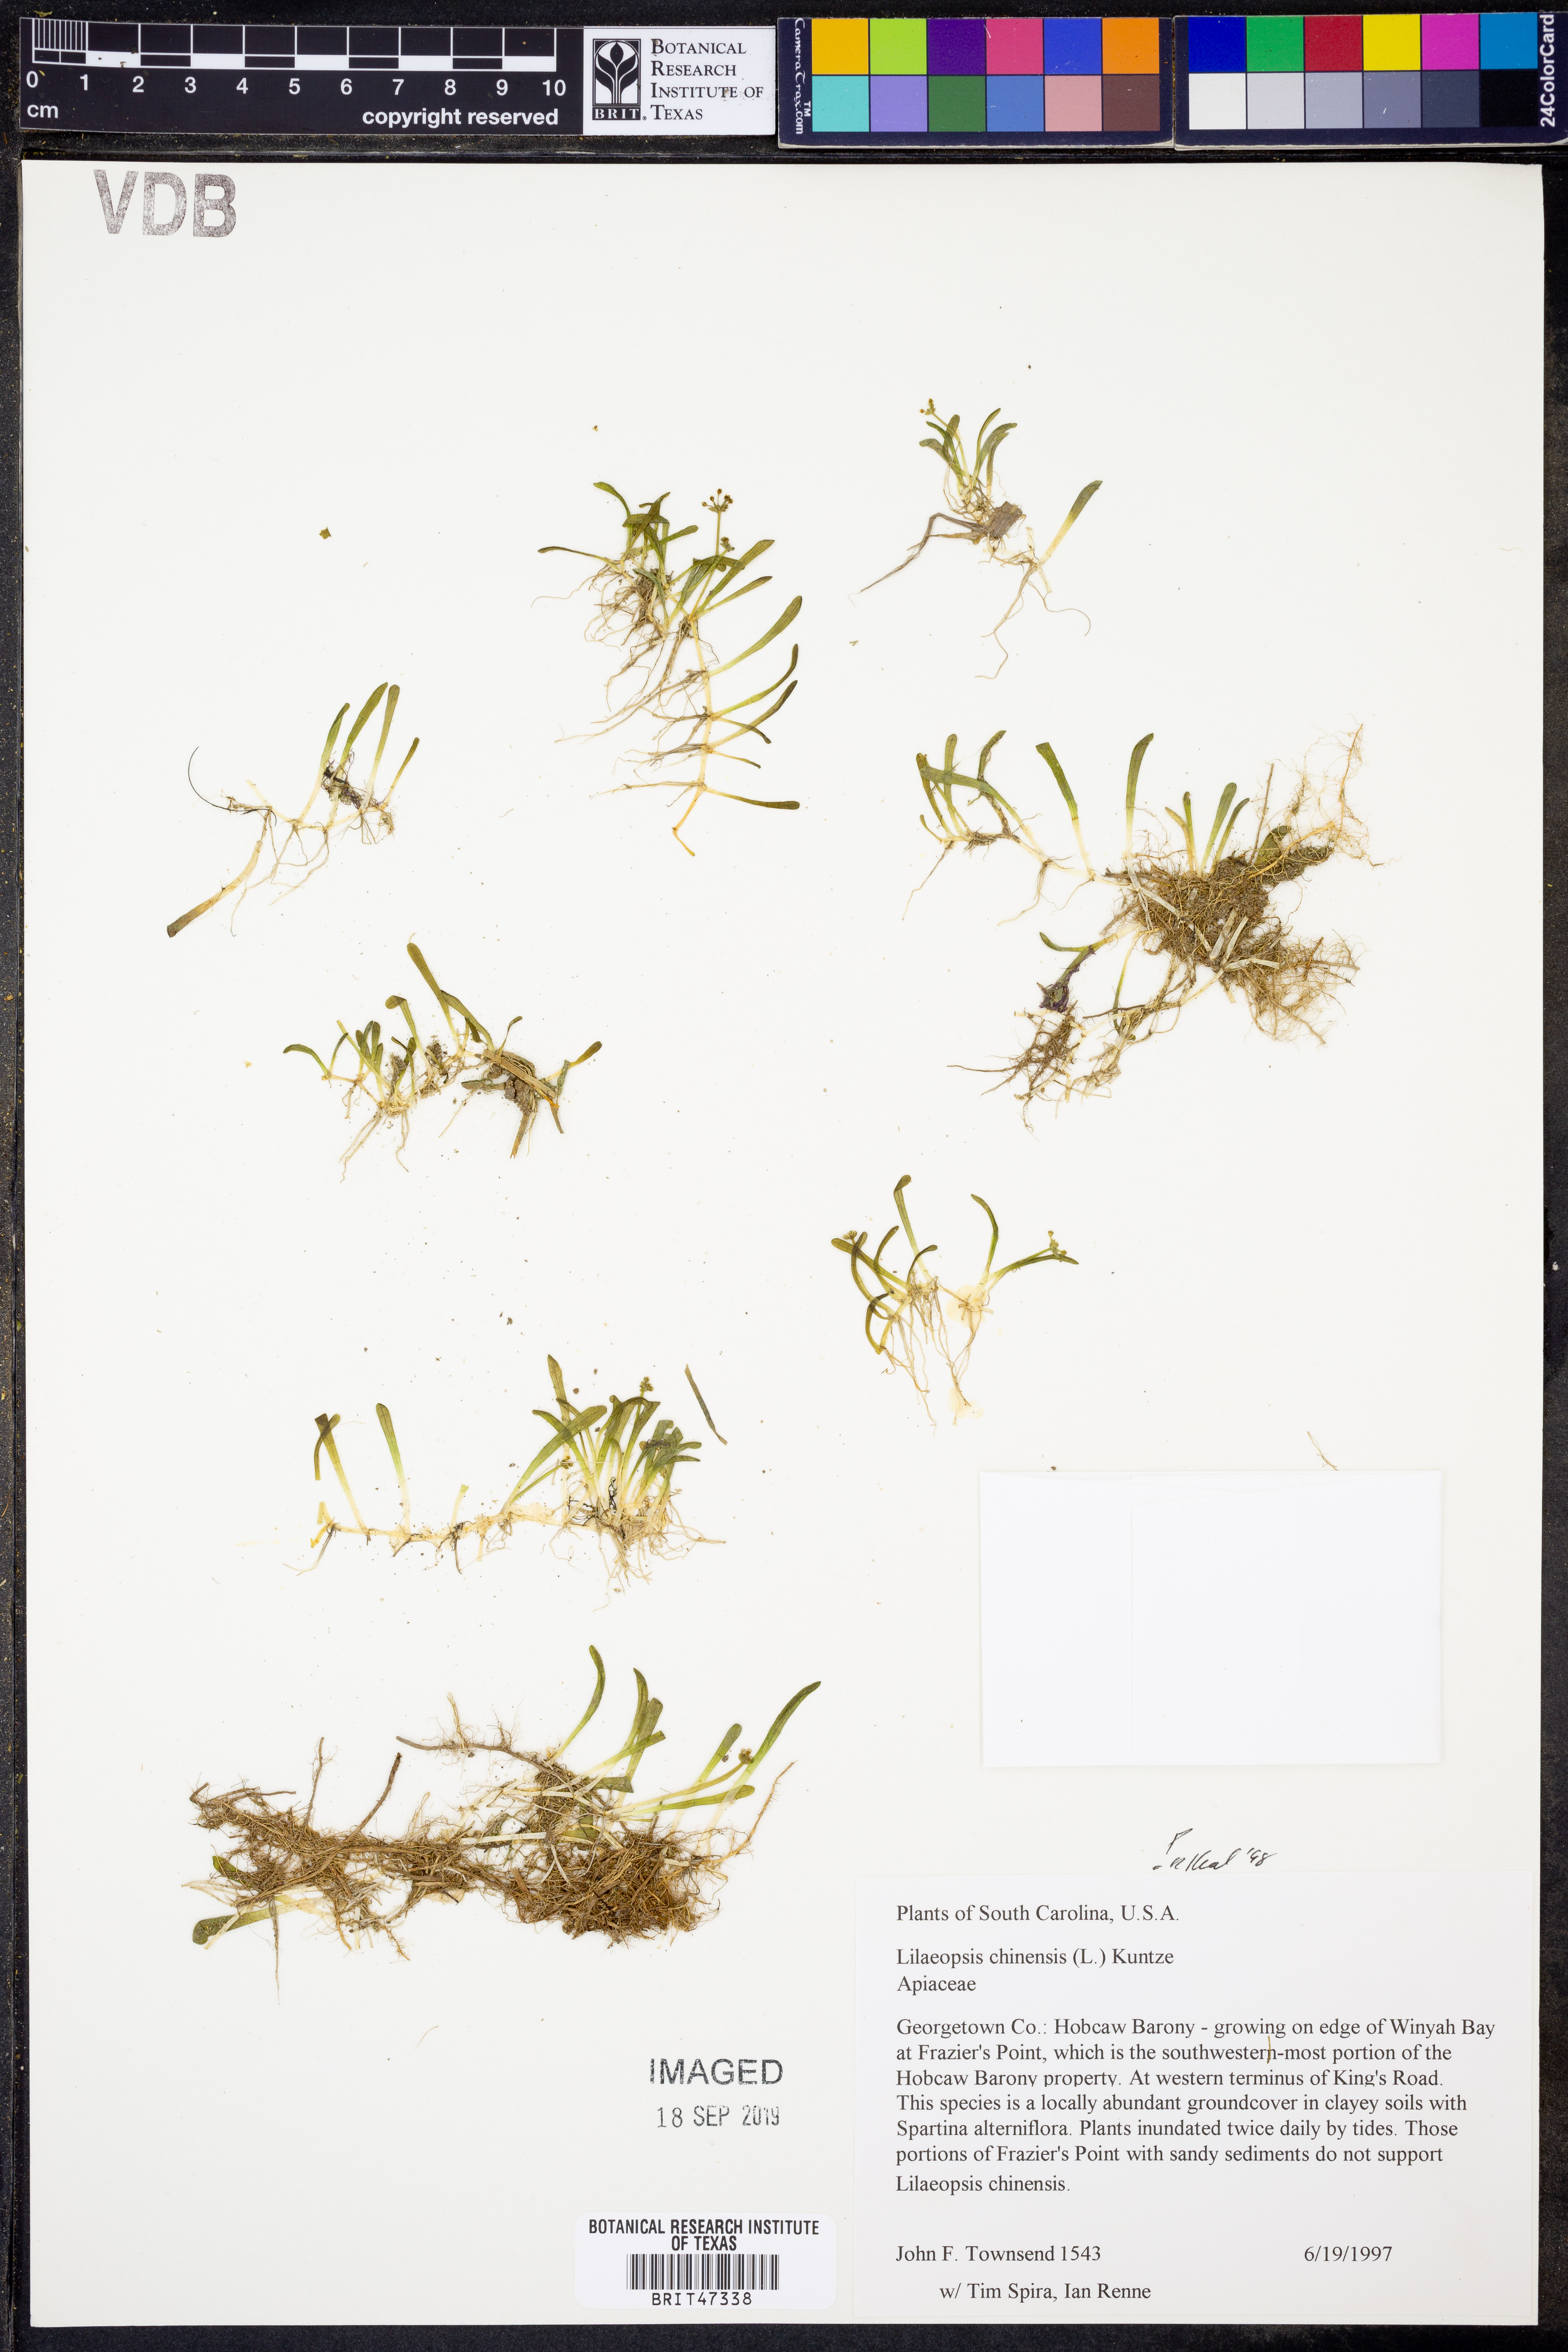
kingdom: Plantae
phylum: Tracheophyta
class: Magnoliopsida
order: Apiales
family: Apiaceae
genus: Lilaeopsis
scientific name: Lilaeopsis chinensis
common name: Eastern grasswort
